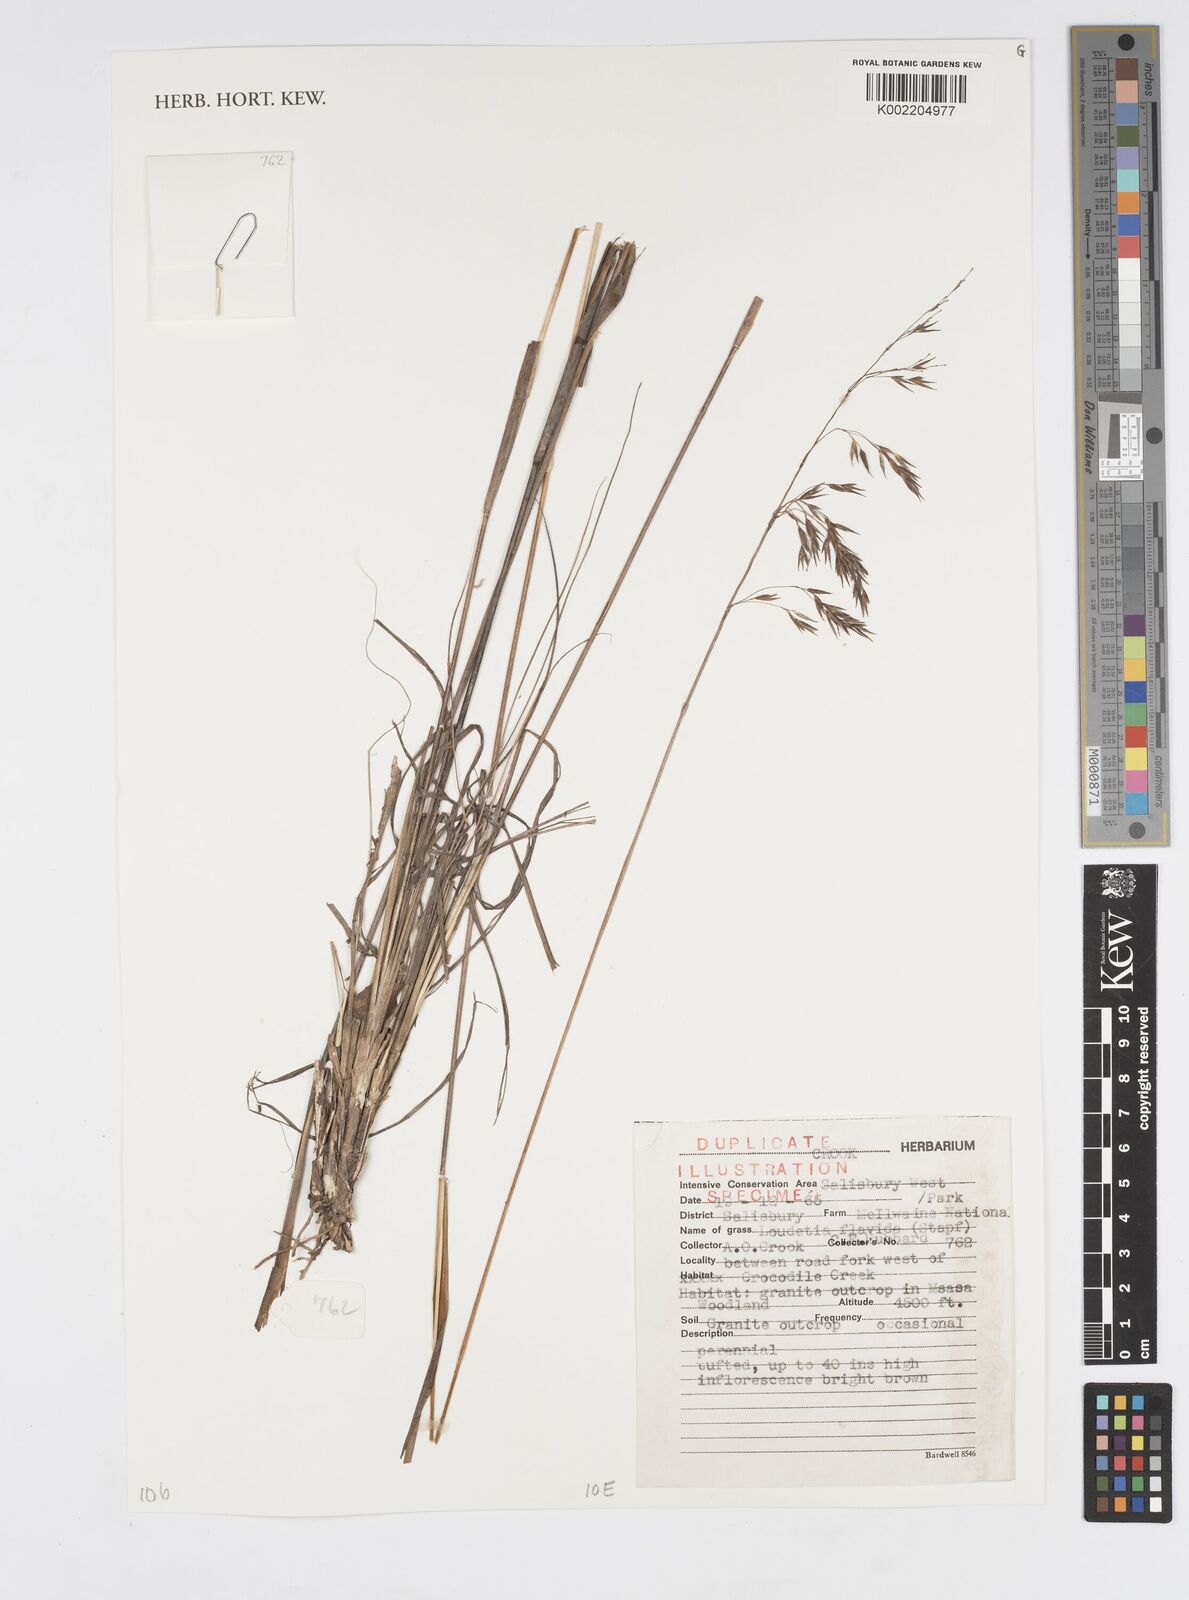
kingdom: Plantae
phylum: Tracheophyta
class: Liliopsida
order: Poales
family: Poaceae
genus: Loudetia
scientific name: Loudetia flavida
